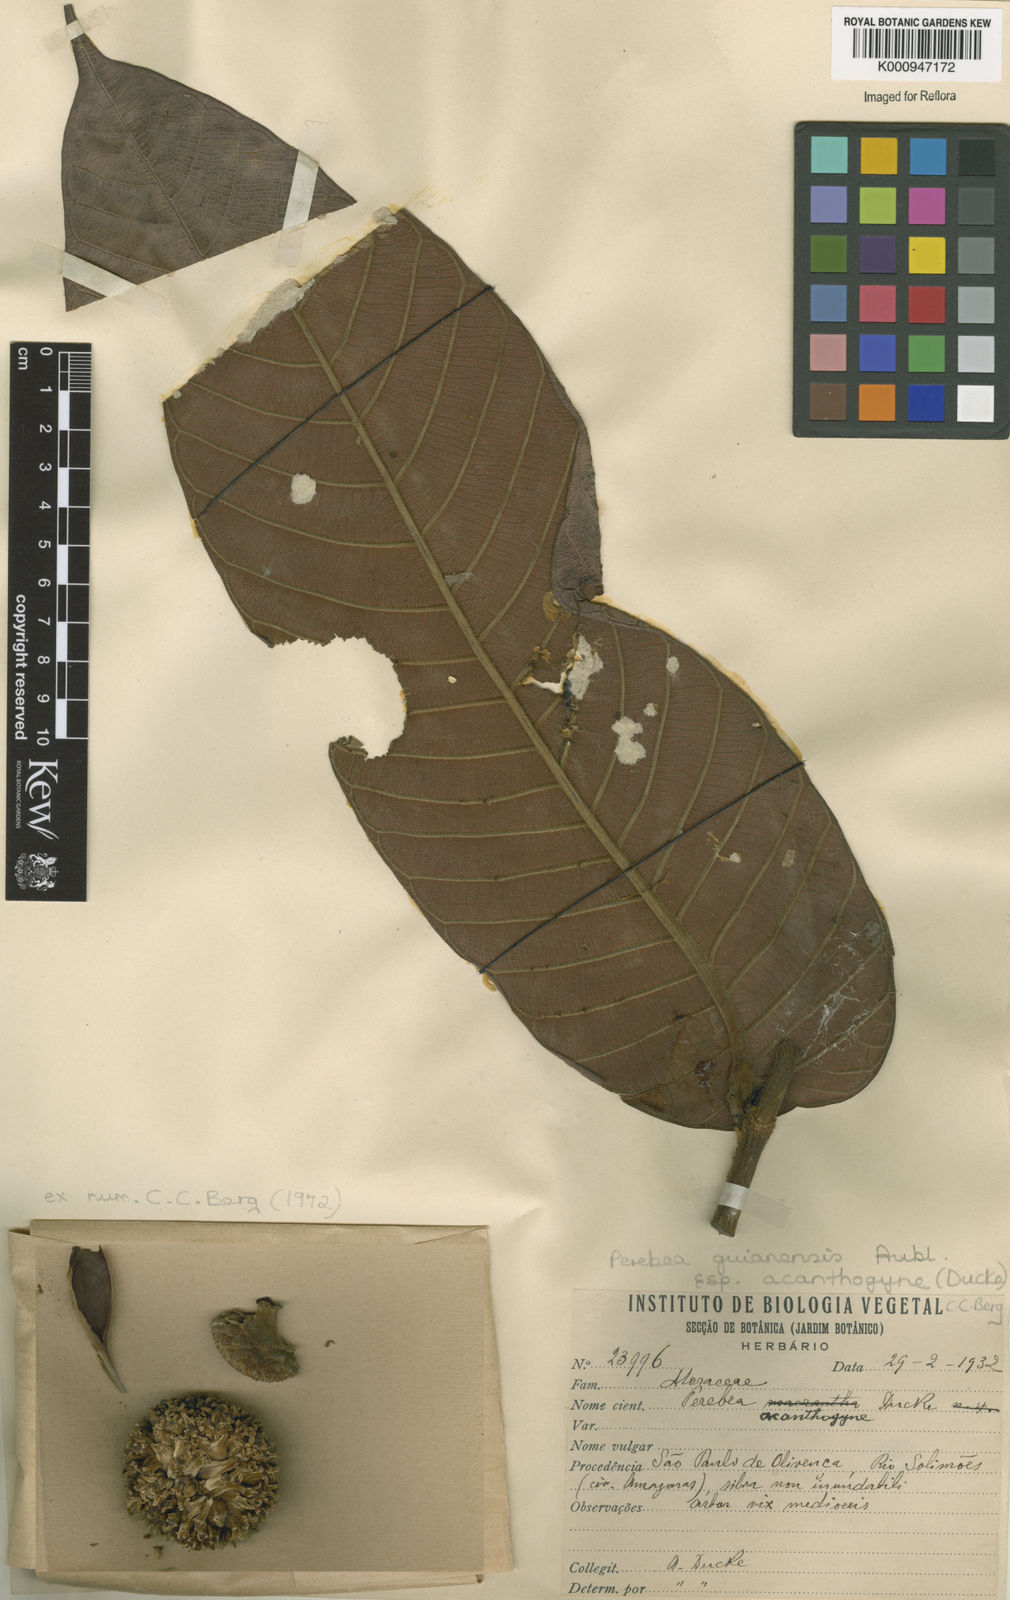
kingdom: Plantae
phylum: Tracheophyta
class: Magnoliopsida
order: Rosales
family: Moraceae
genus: Perebea
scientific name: Perebea guianensis
